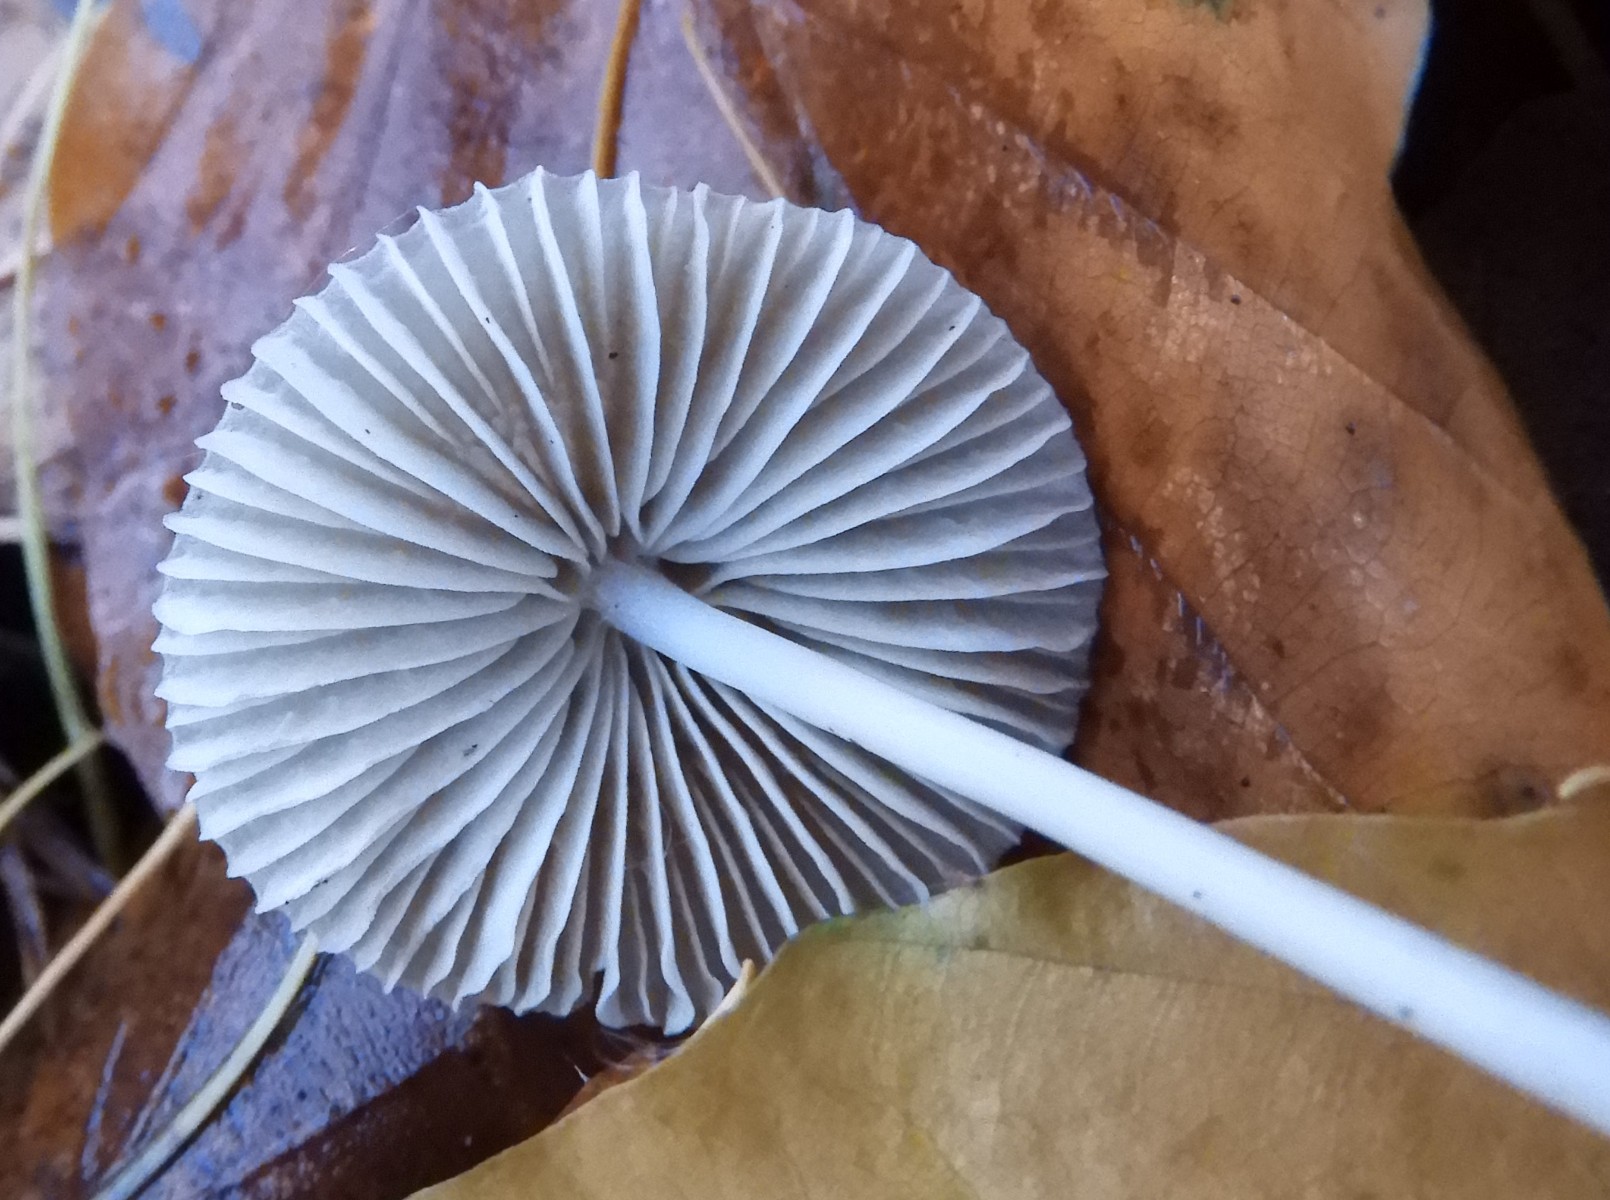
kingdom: Fungi
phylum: Basidiomycota
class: Agaricomycetes
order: Agaricales
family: Mycenaceae
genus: Mycena
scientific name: Mycena vitilis
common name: blankstokket huesvamp
